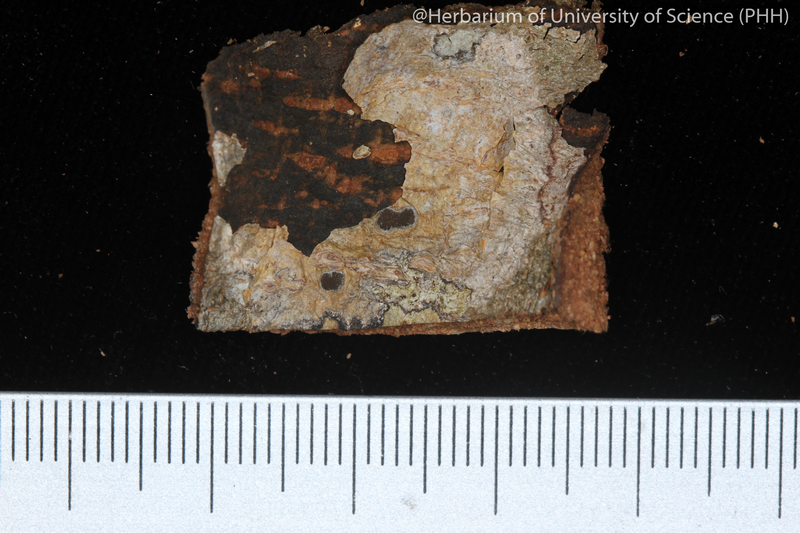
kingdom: Fungi
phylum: Ascomycota
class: Lecanoromycetes
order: Ostropales
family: Graphidaceae
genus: Glyphis
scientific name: Glyphis cicatricosa
